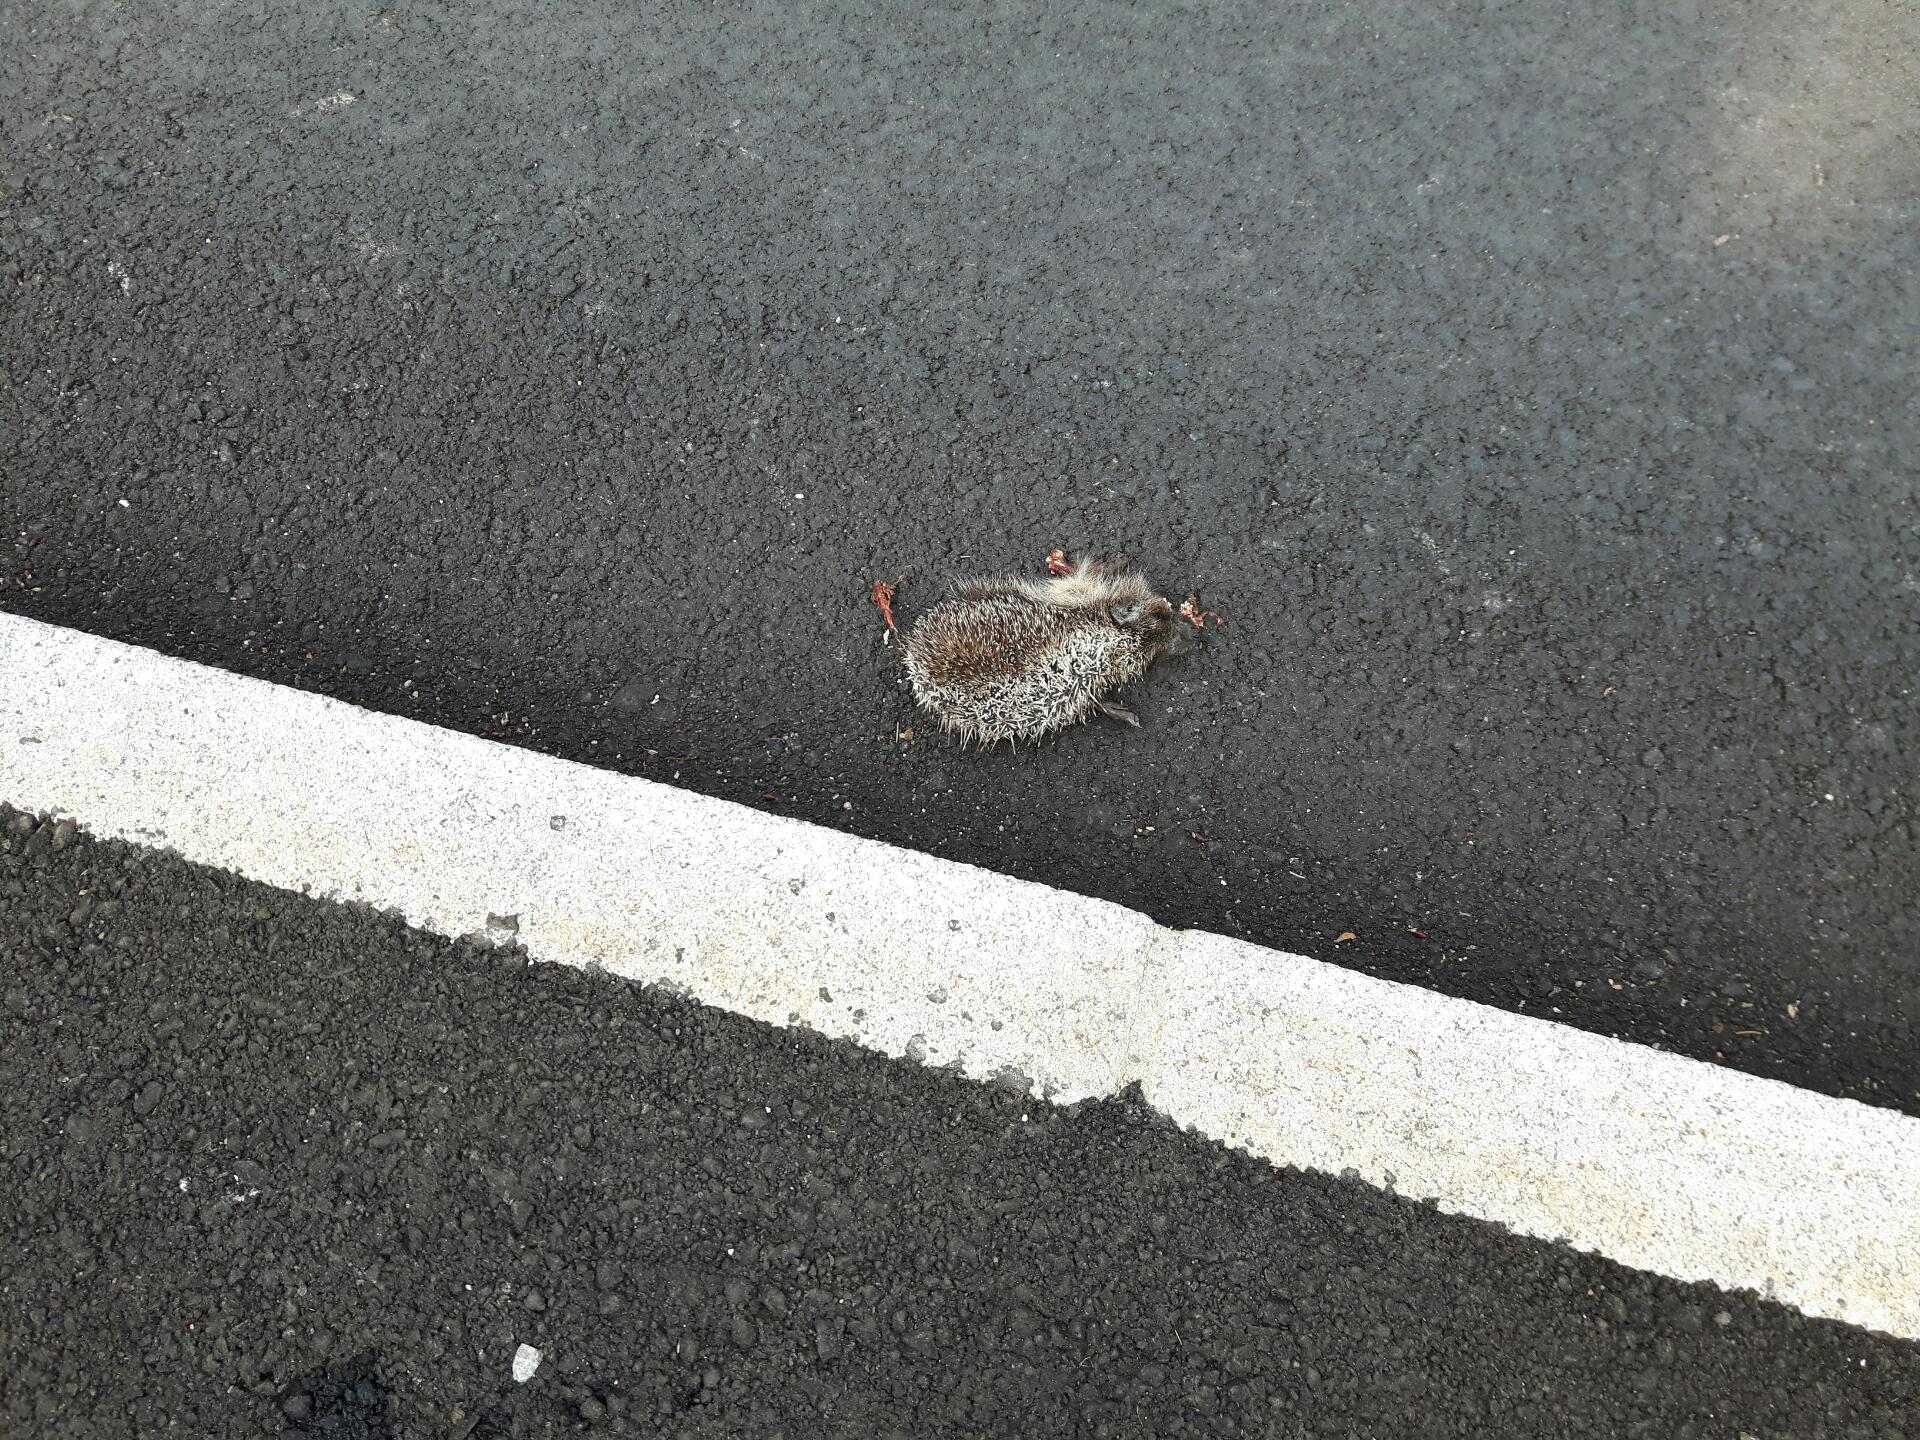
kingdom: Animalia
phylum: Chordata
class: Mammalia
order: Erinaceomorpha
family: Erinaceidae
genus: Erinaceus
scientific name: Erinaceus
